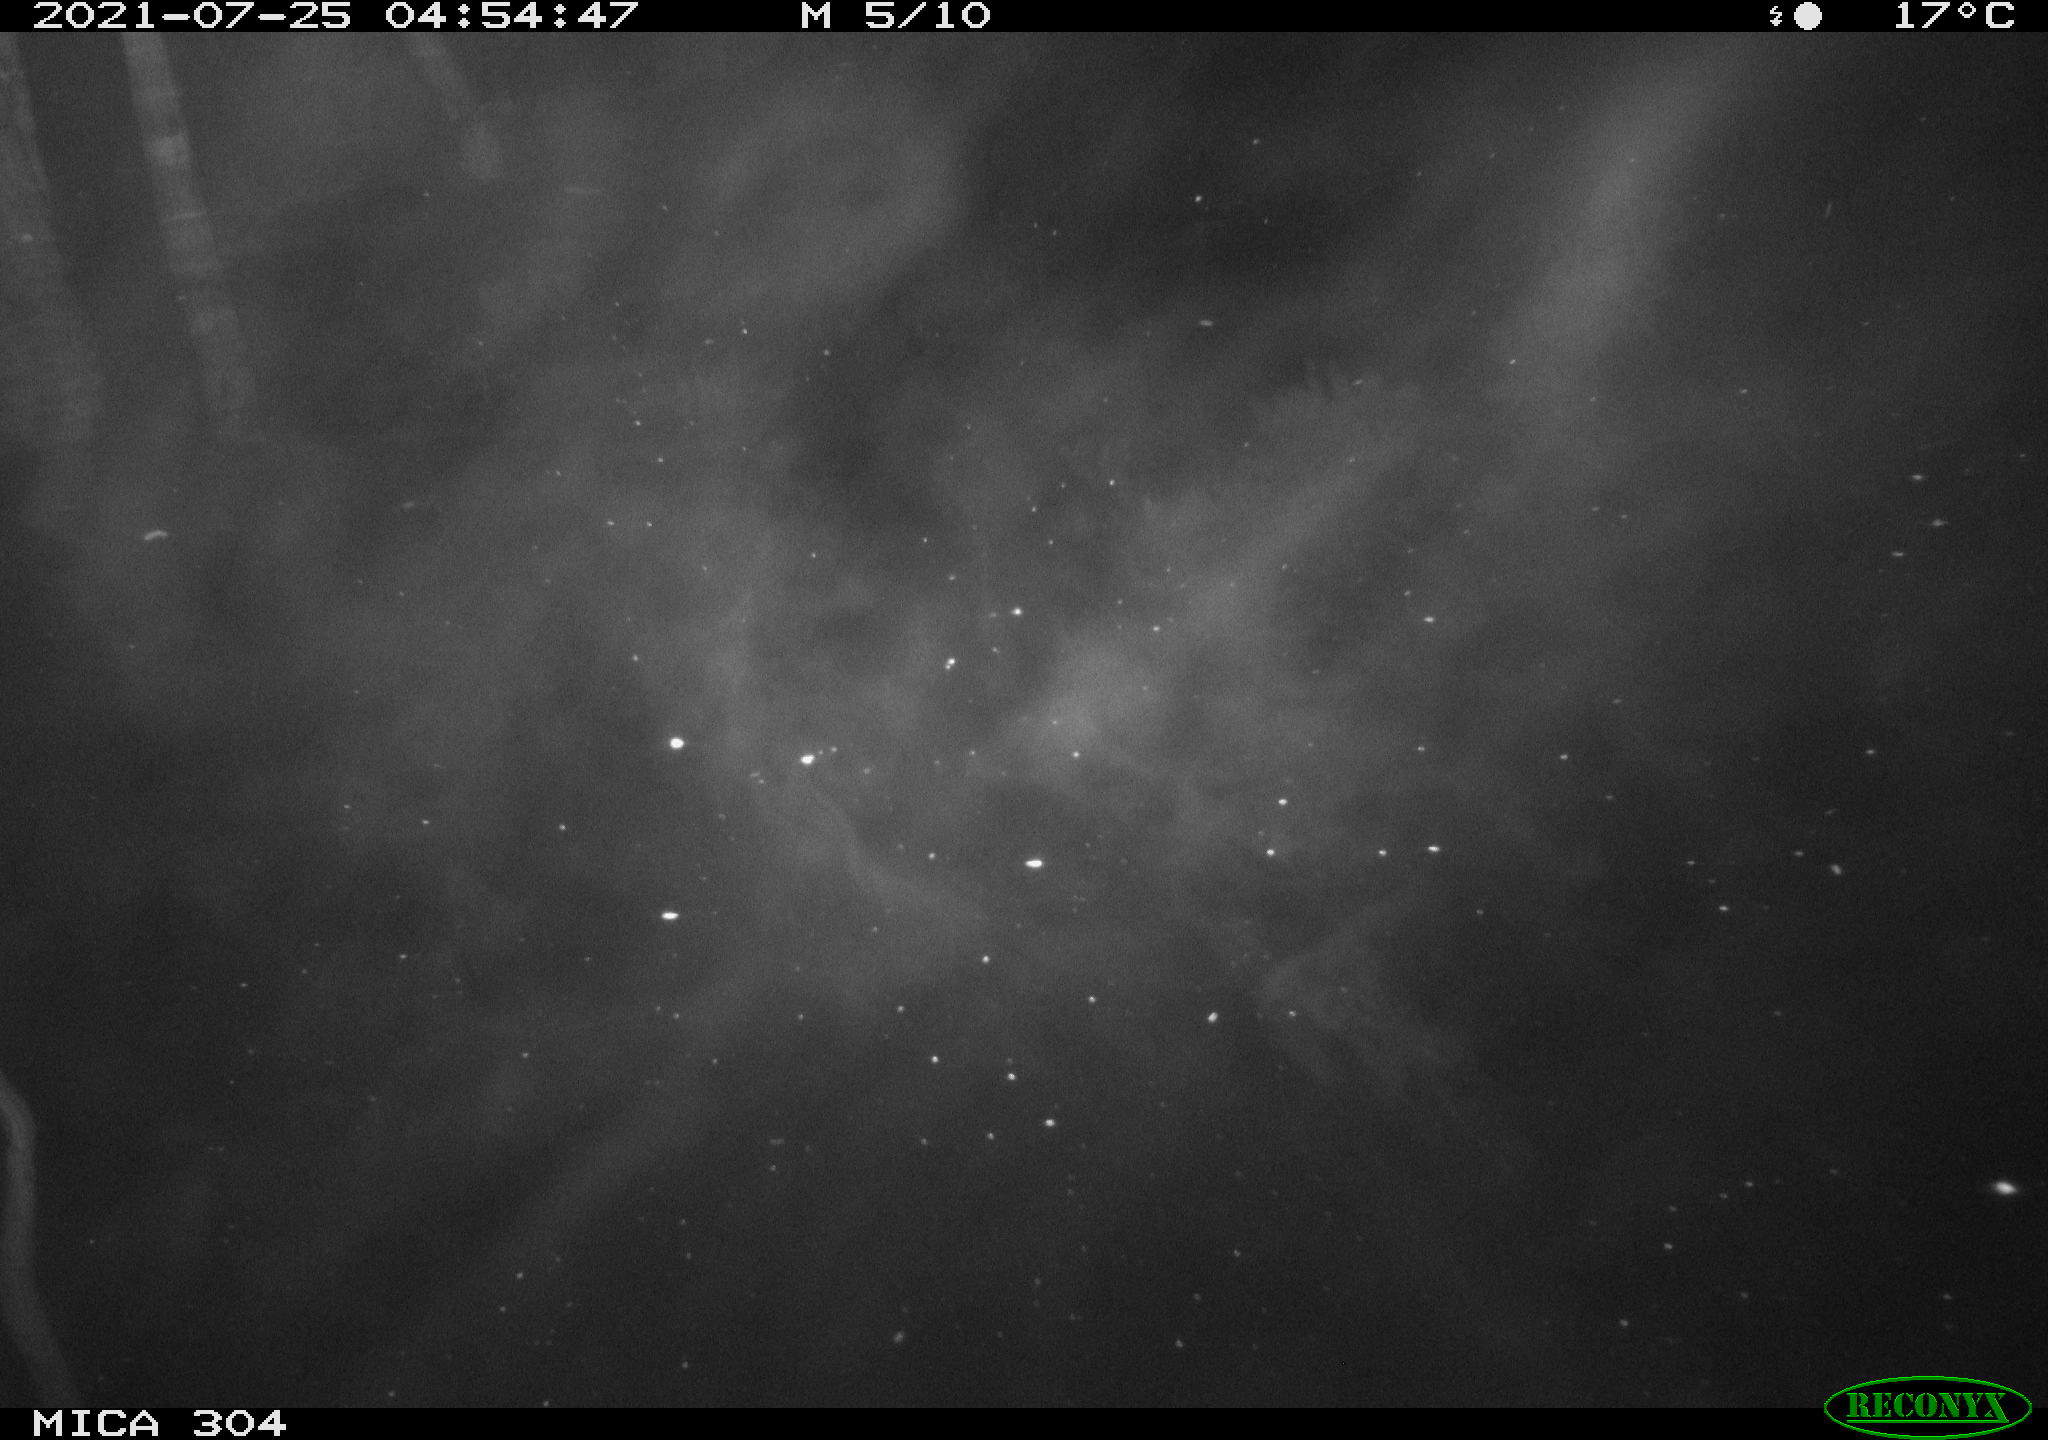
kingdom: Animalia
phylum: Chordata
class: Aves
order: Anseriformes
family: Anatidae
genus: Anas
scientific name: Anas platyrhynchos
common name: Mallard
